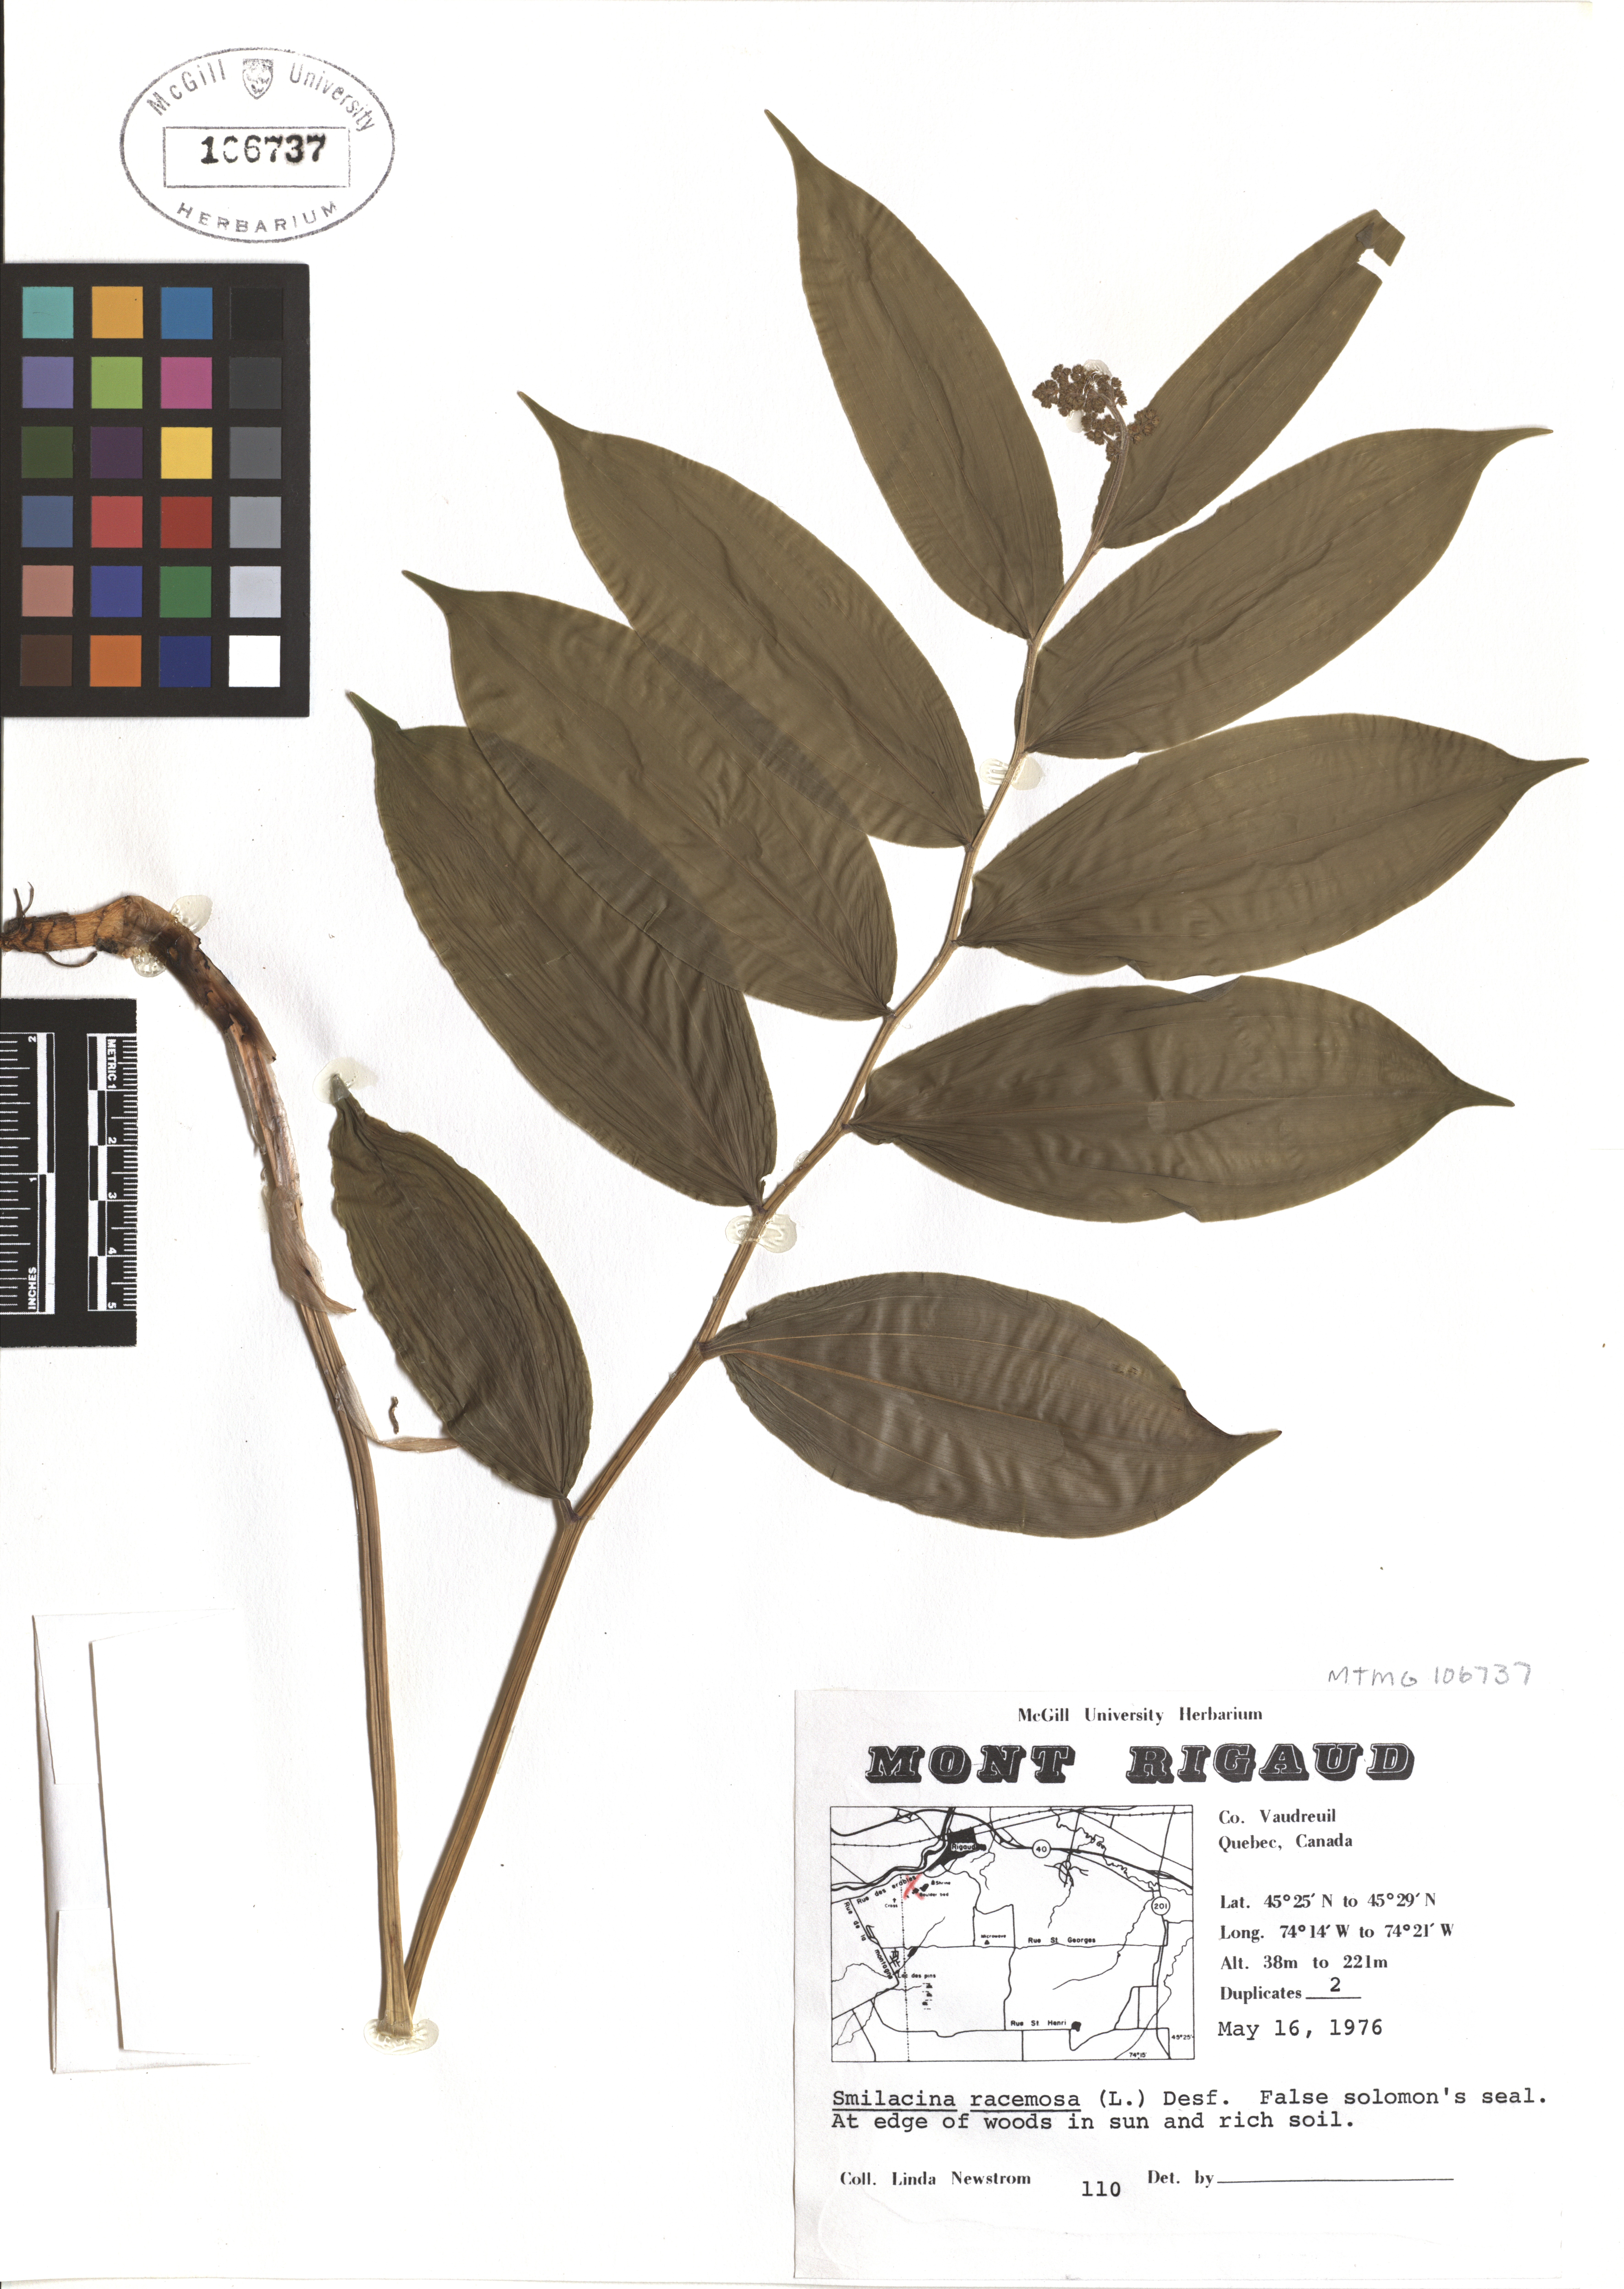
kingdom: Plantae
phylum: Tracheophyta
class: Liliopsida
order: Asparagales
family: Asparagaceae
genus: Maianthemum
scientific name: Maianthemum racemosum
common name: False spikenard
